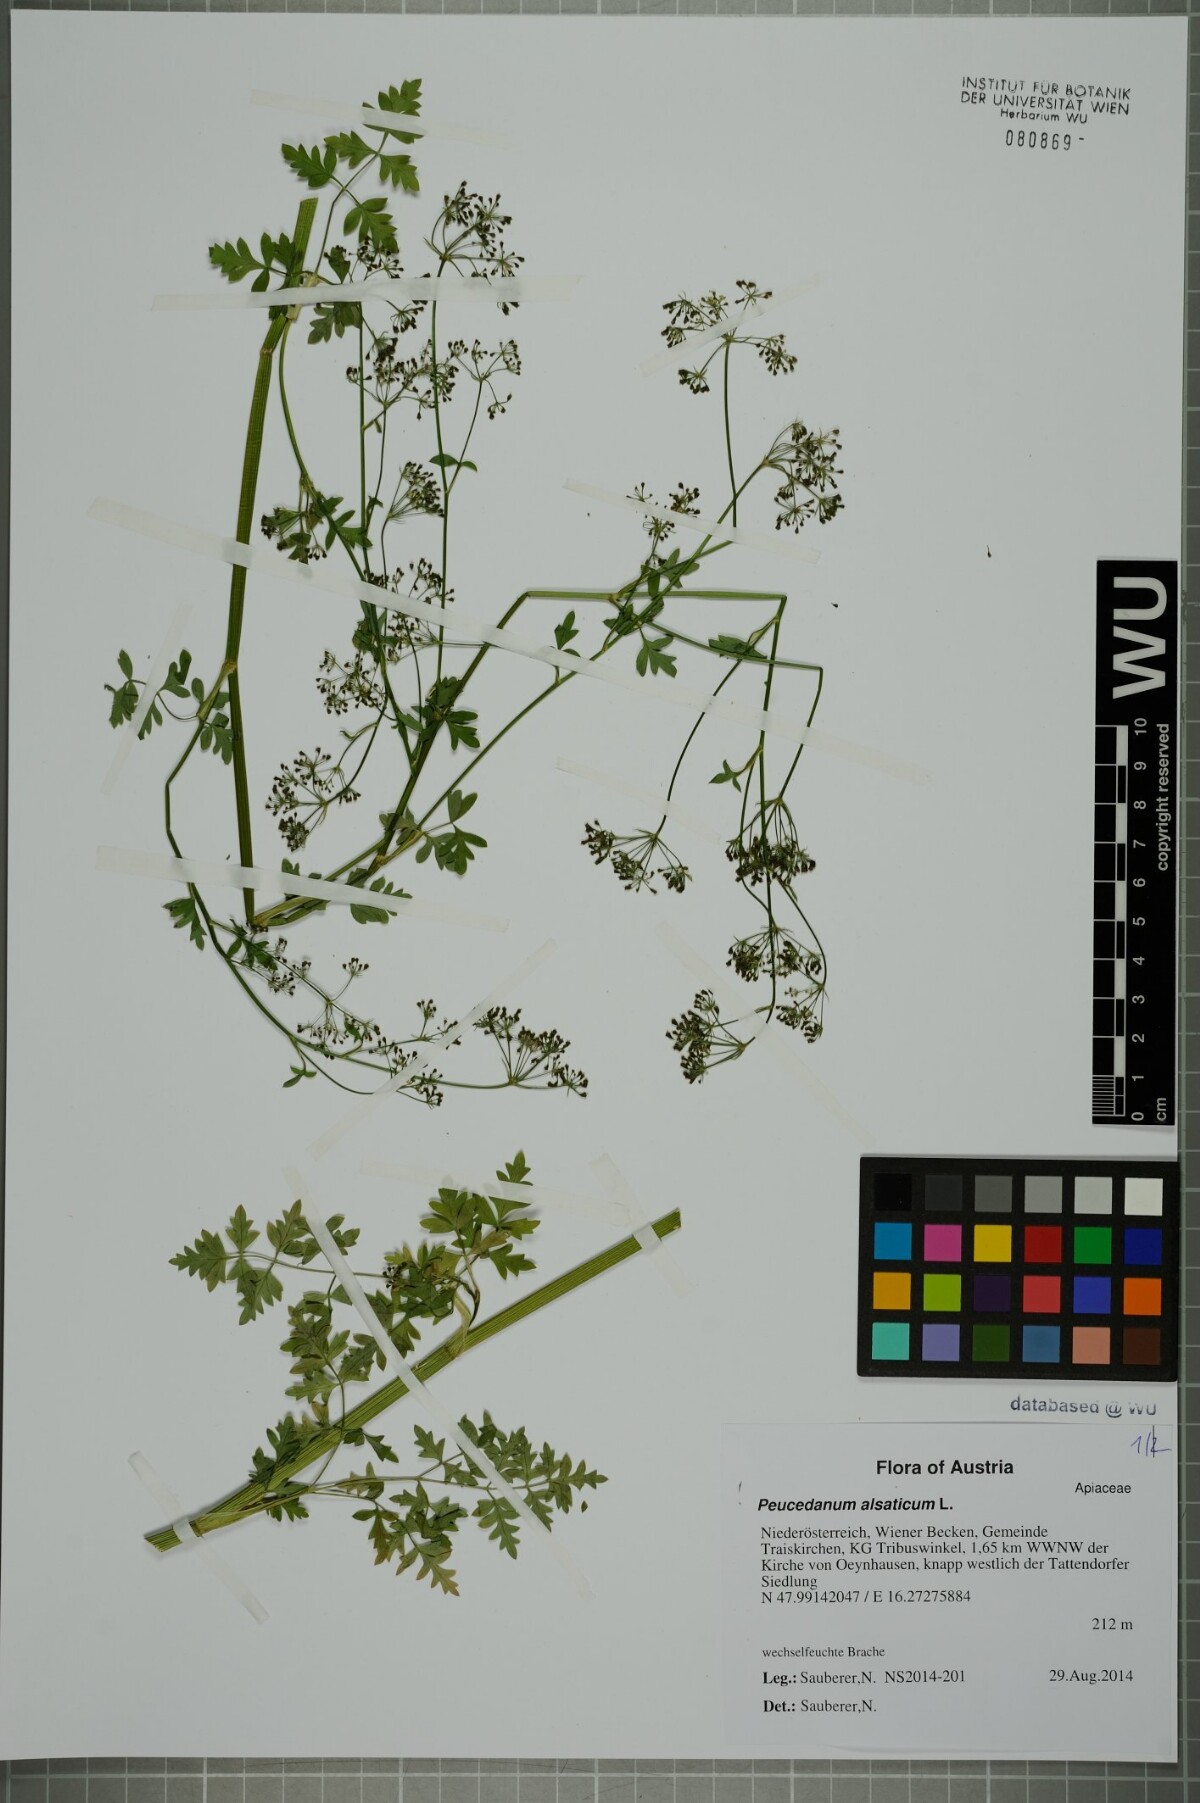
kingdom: Plantae
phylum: Tracheophyta
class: Magnoliopsida
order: Apiales
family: Apiaceae
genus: Xanthoselinum
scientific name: Xanthoselinum alsaticum
